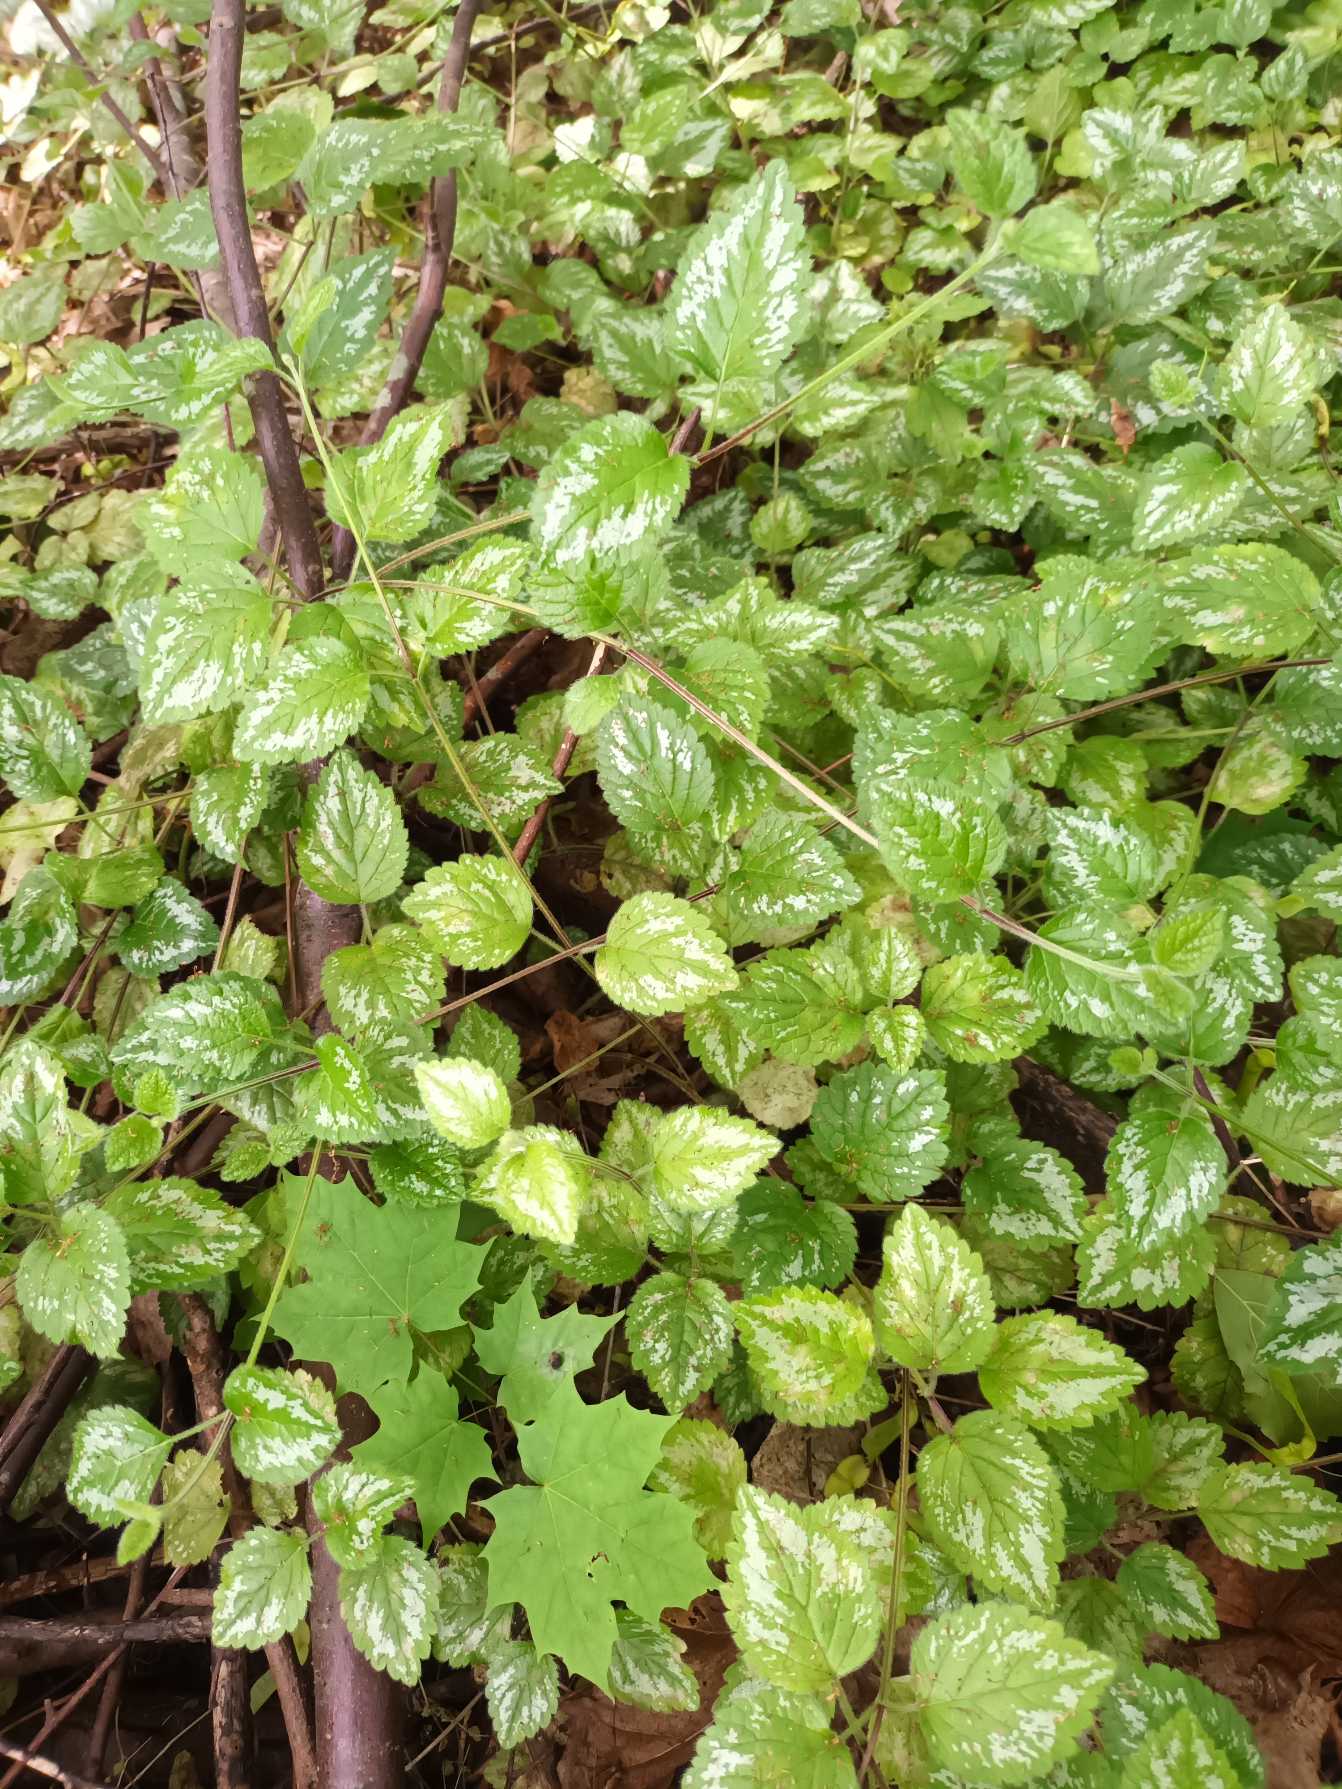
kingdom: Plantae
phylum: Tracheophyta
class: Magnoliopsida
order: Lamiales
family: Lamiaceae
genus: Lamium
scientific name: Lamium galeobdolon
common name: Have-guldnælde
